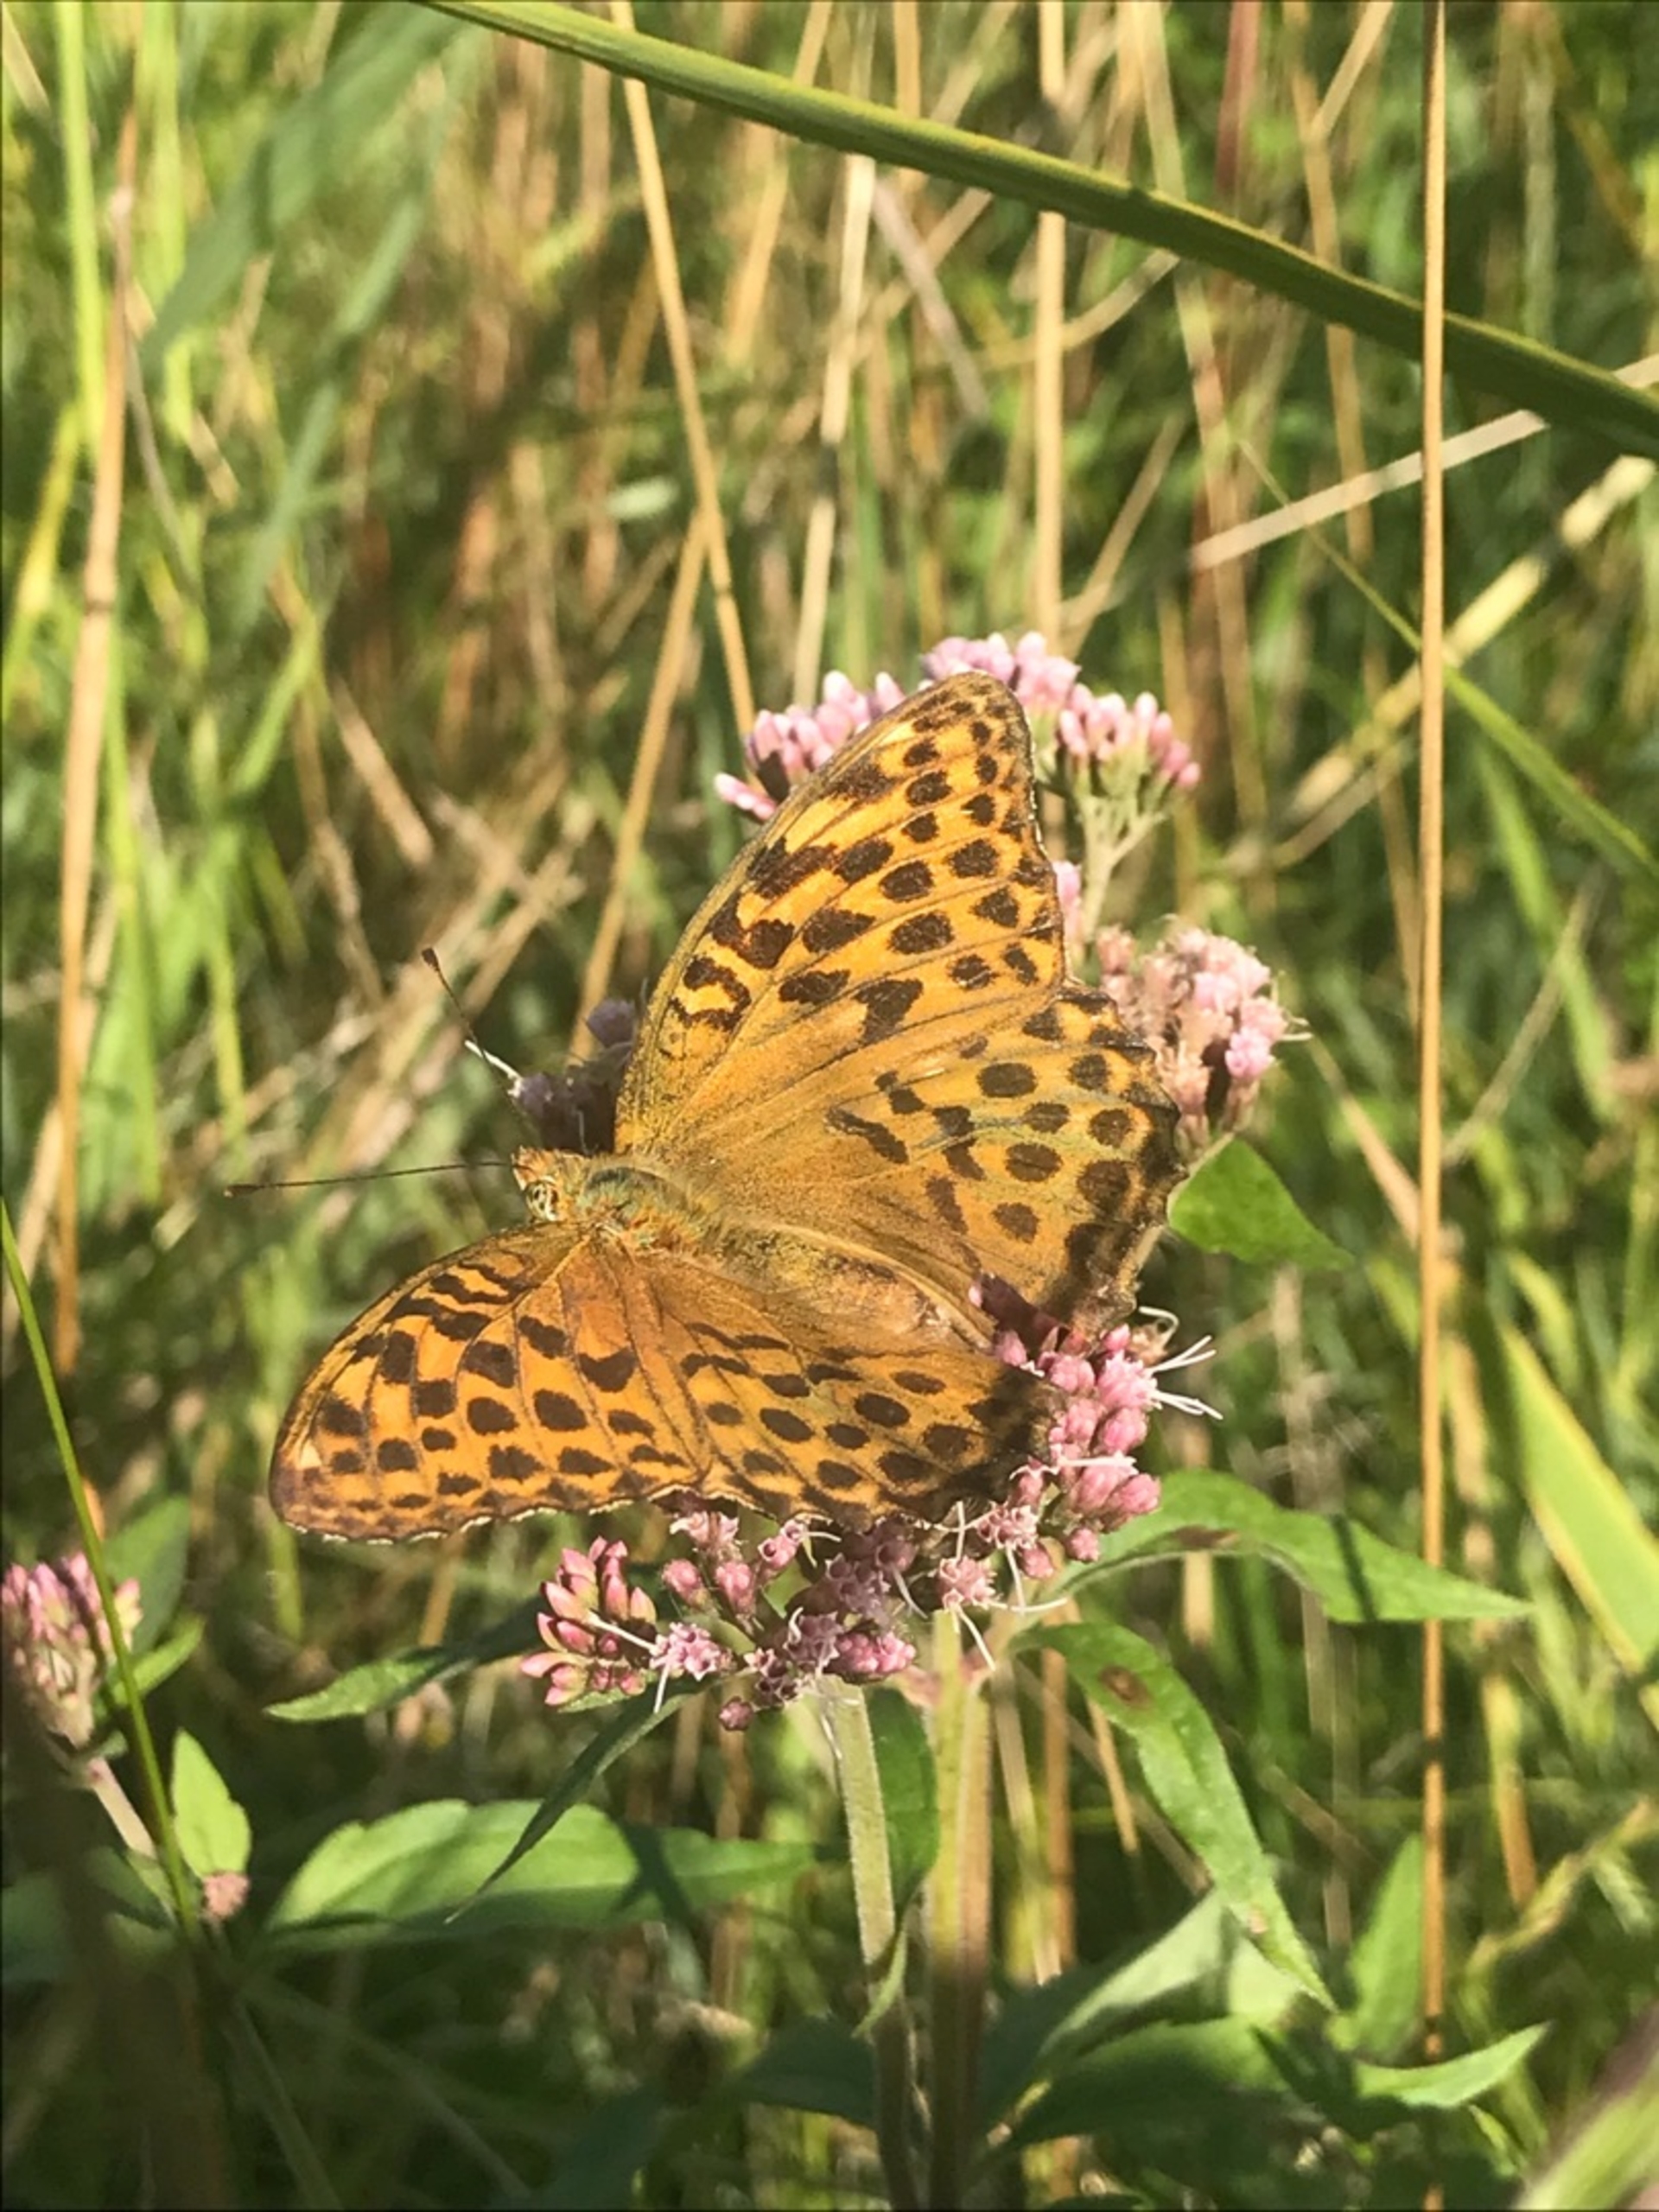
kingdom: Animalia
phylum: Arthropoda
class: Insecta
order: Lepidoptera
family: Nymphalidae
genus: Argynnis
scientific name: Argynnis paphia
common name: Kejserkåbe
